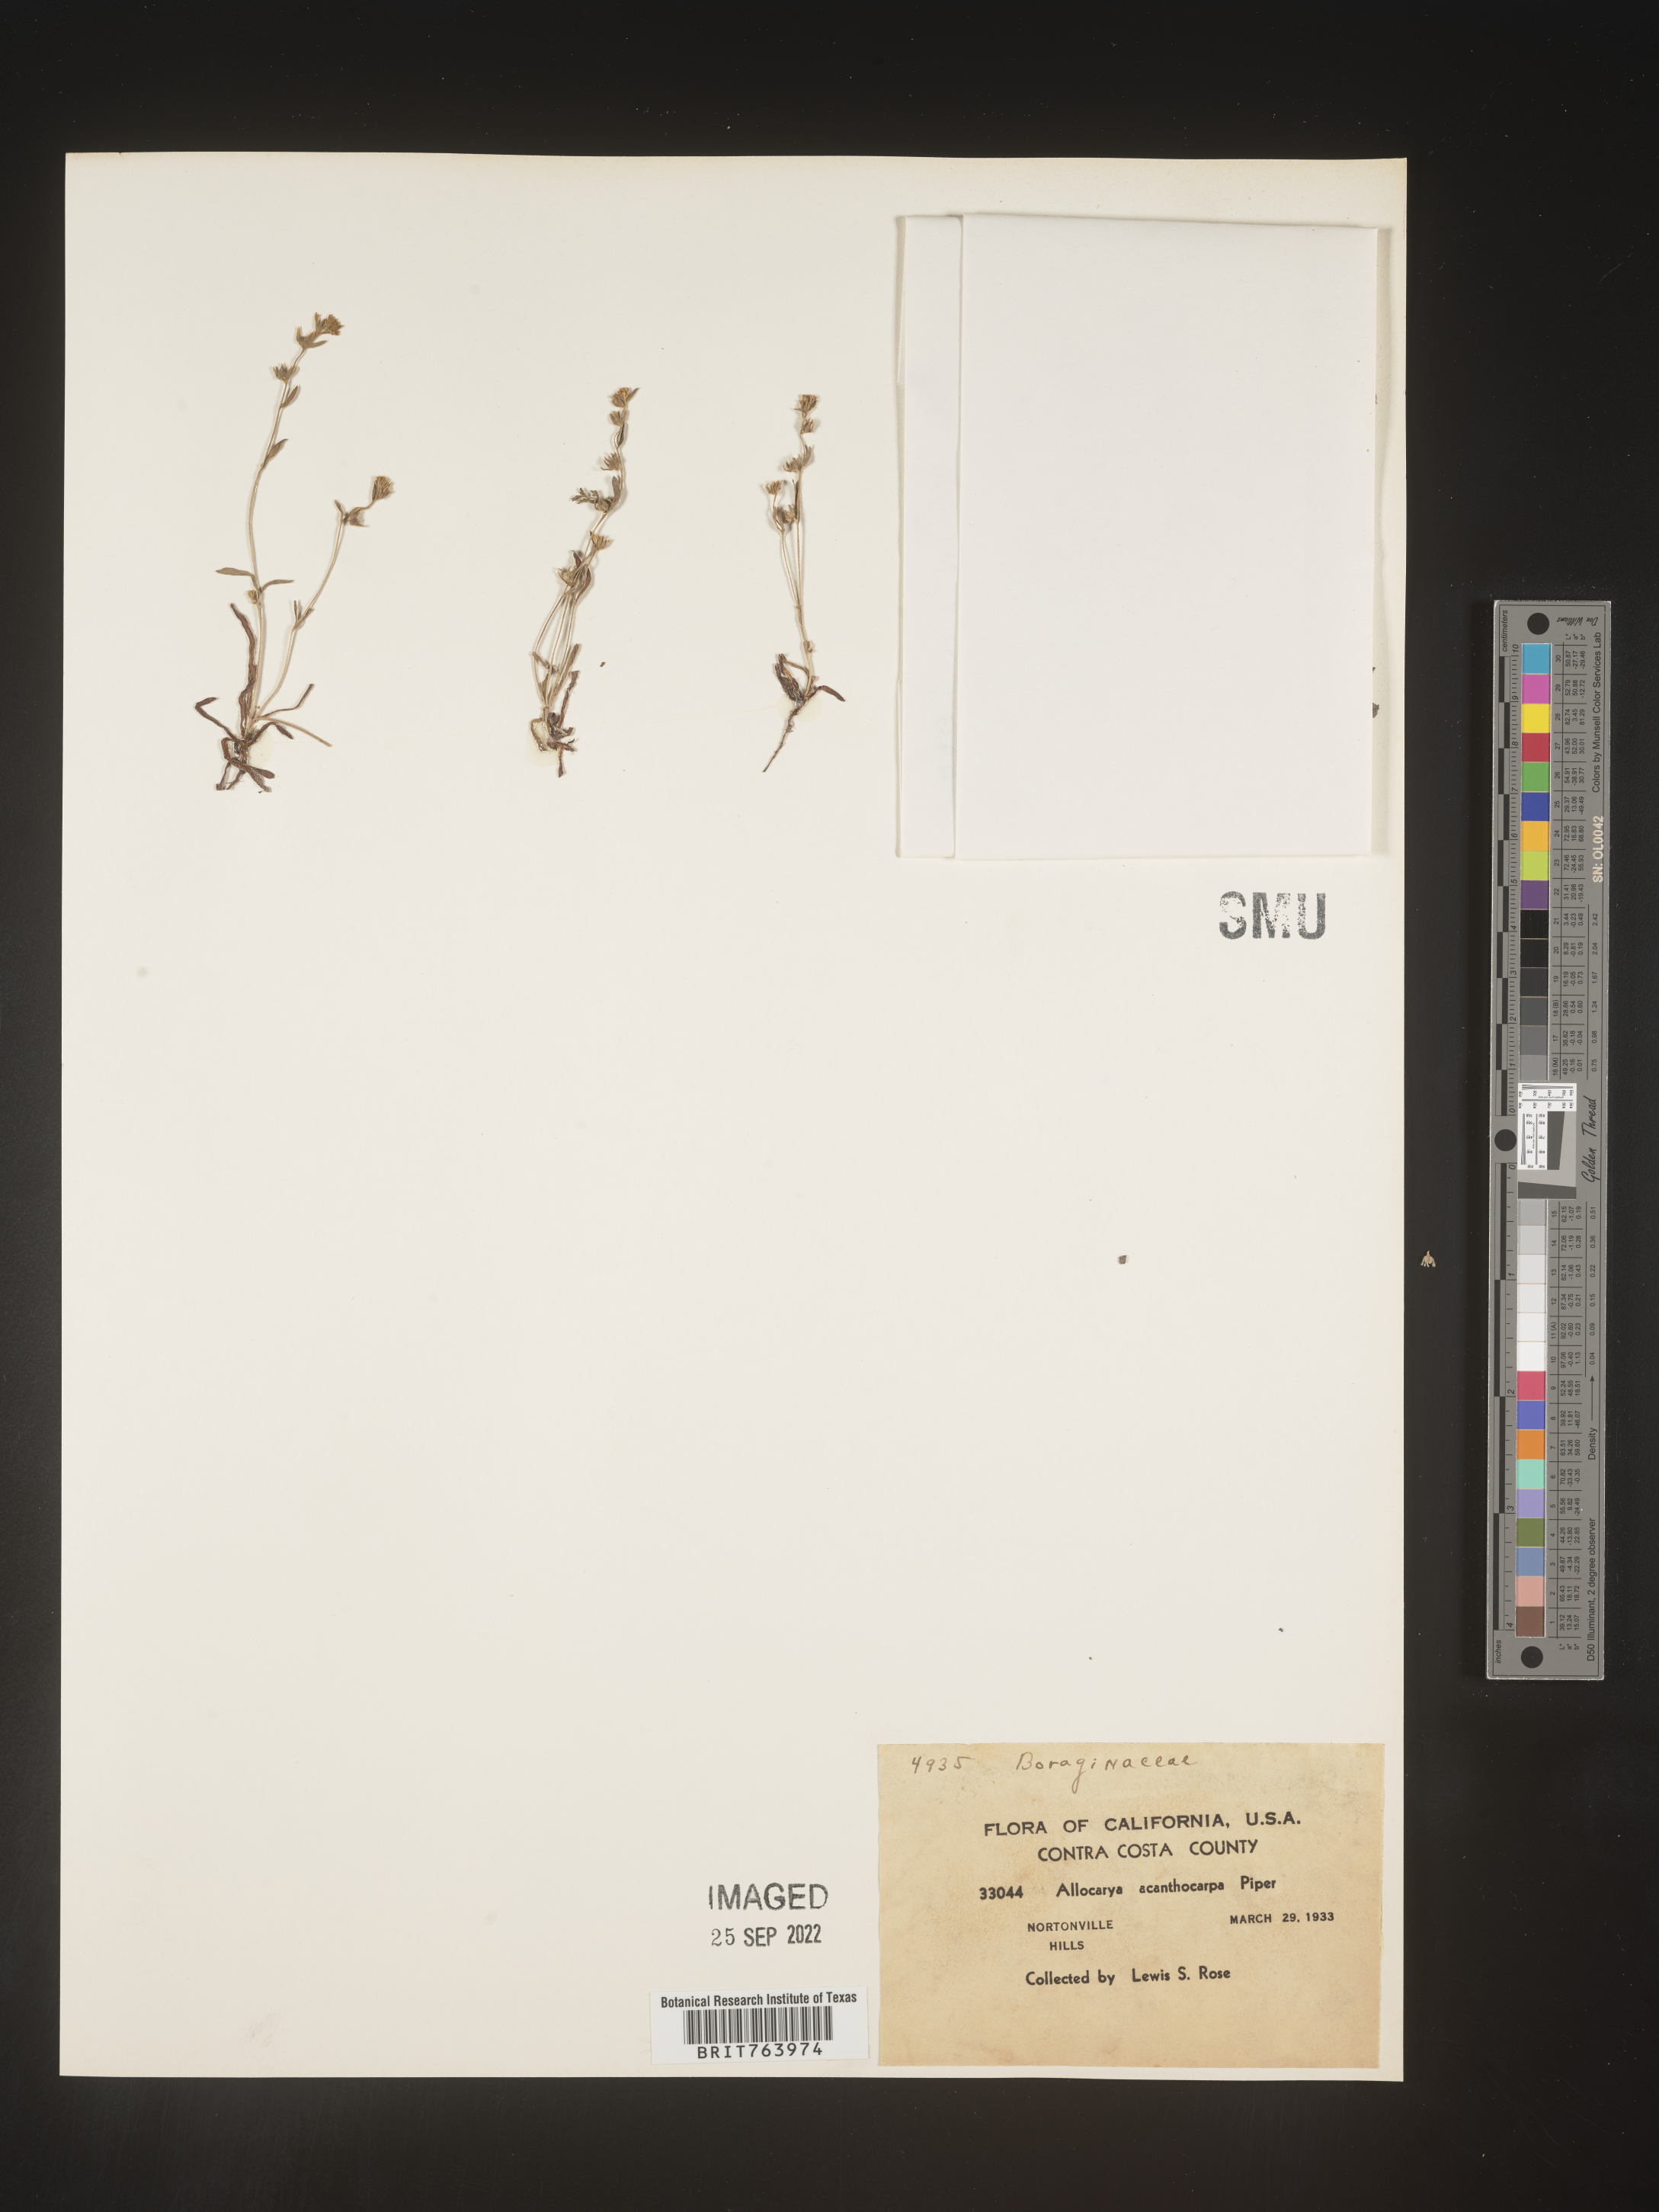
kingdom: Plantae
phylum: Tracheophyta
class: Magnoliopsida
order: Boraginales
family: Boraginaceae
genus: Plagiobothrys
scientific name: Plagiobothrys
